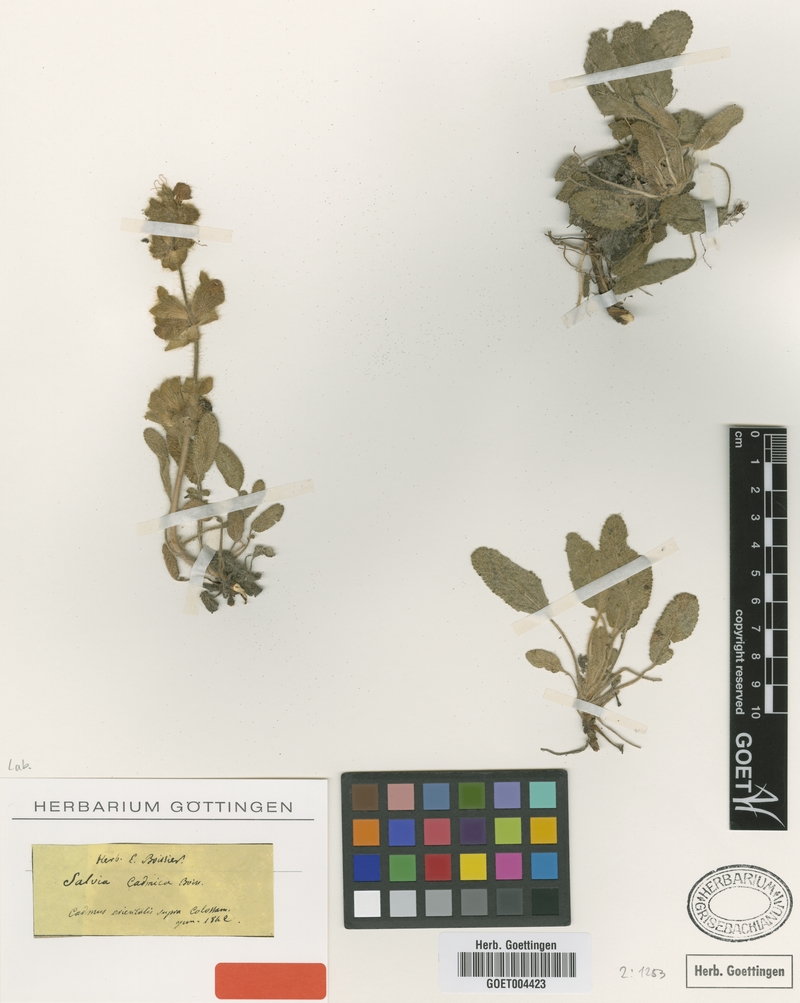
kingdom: Plantae
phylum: Tracheophyta
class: Magnoliopsida
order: Lamiales
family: Lamiaceae
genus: Salvia
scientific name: Salvia cadmica
